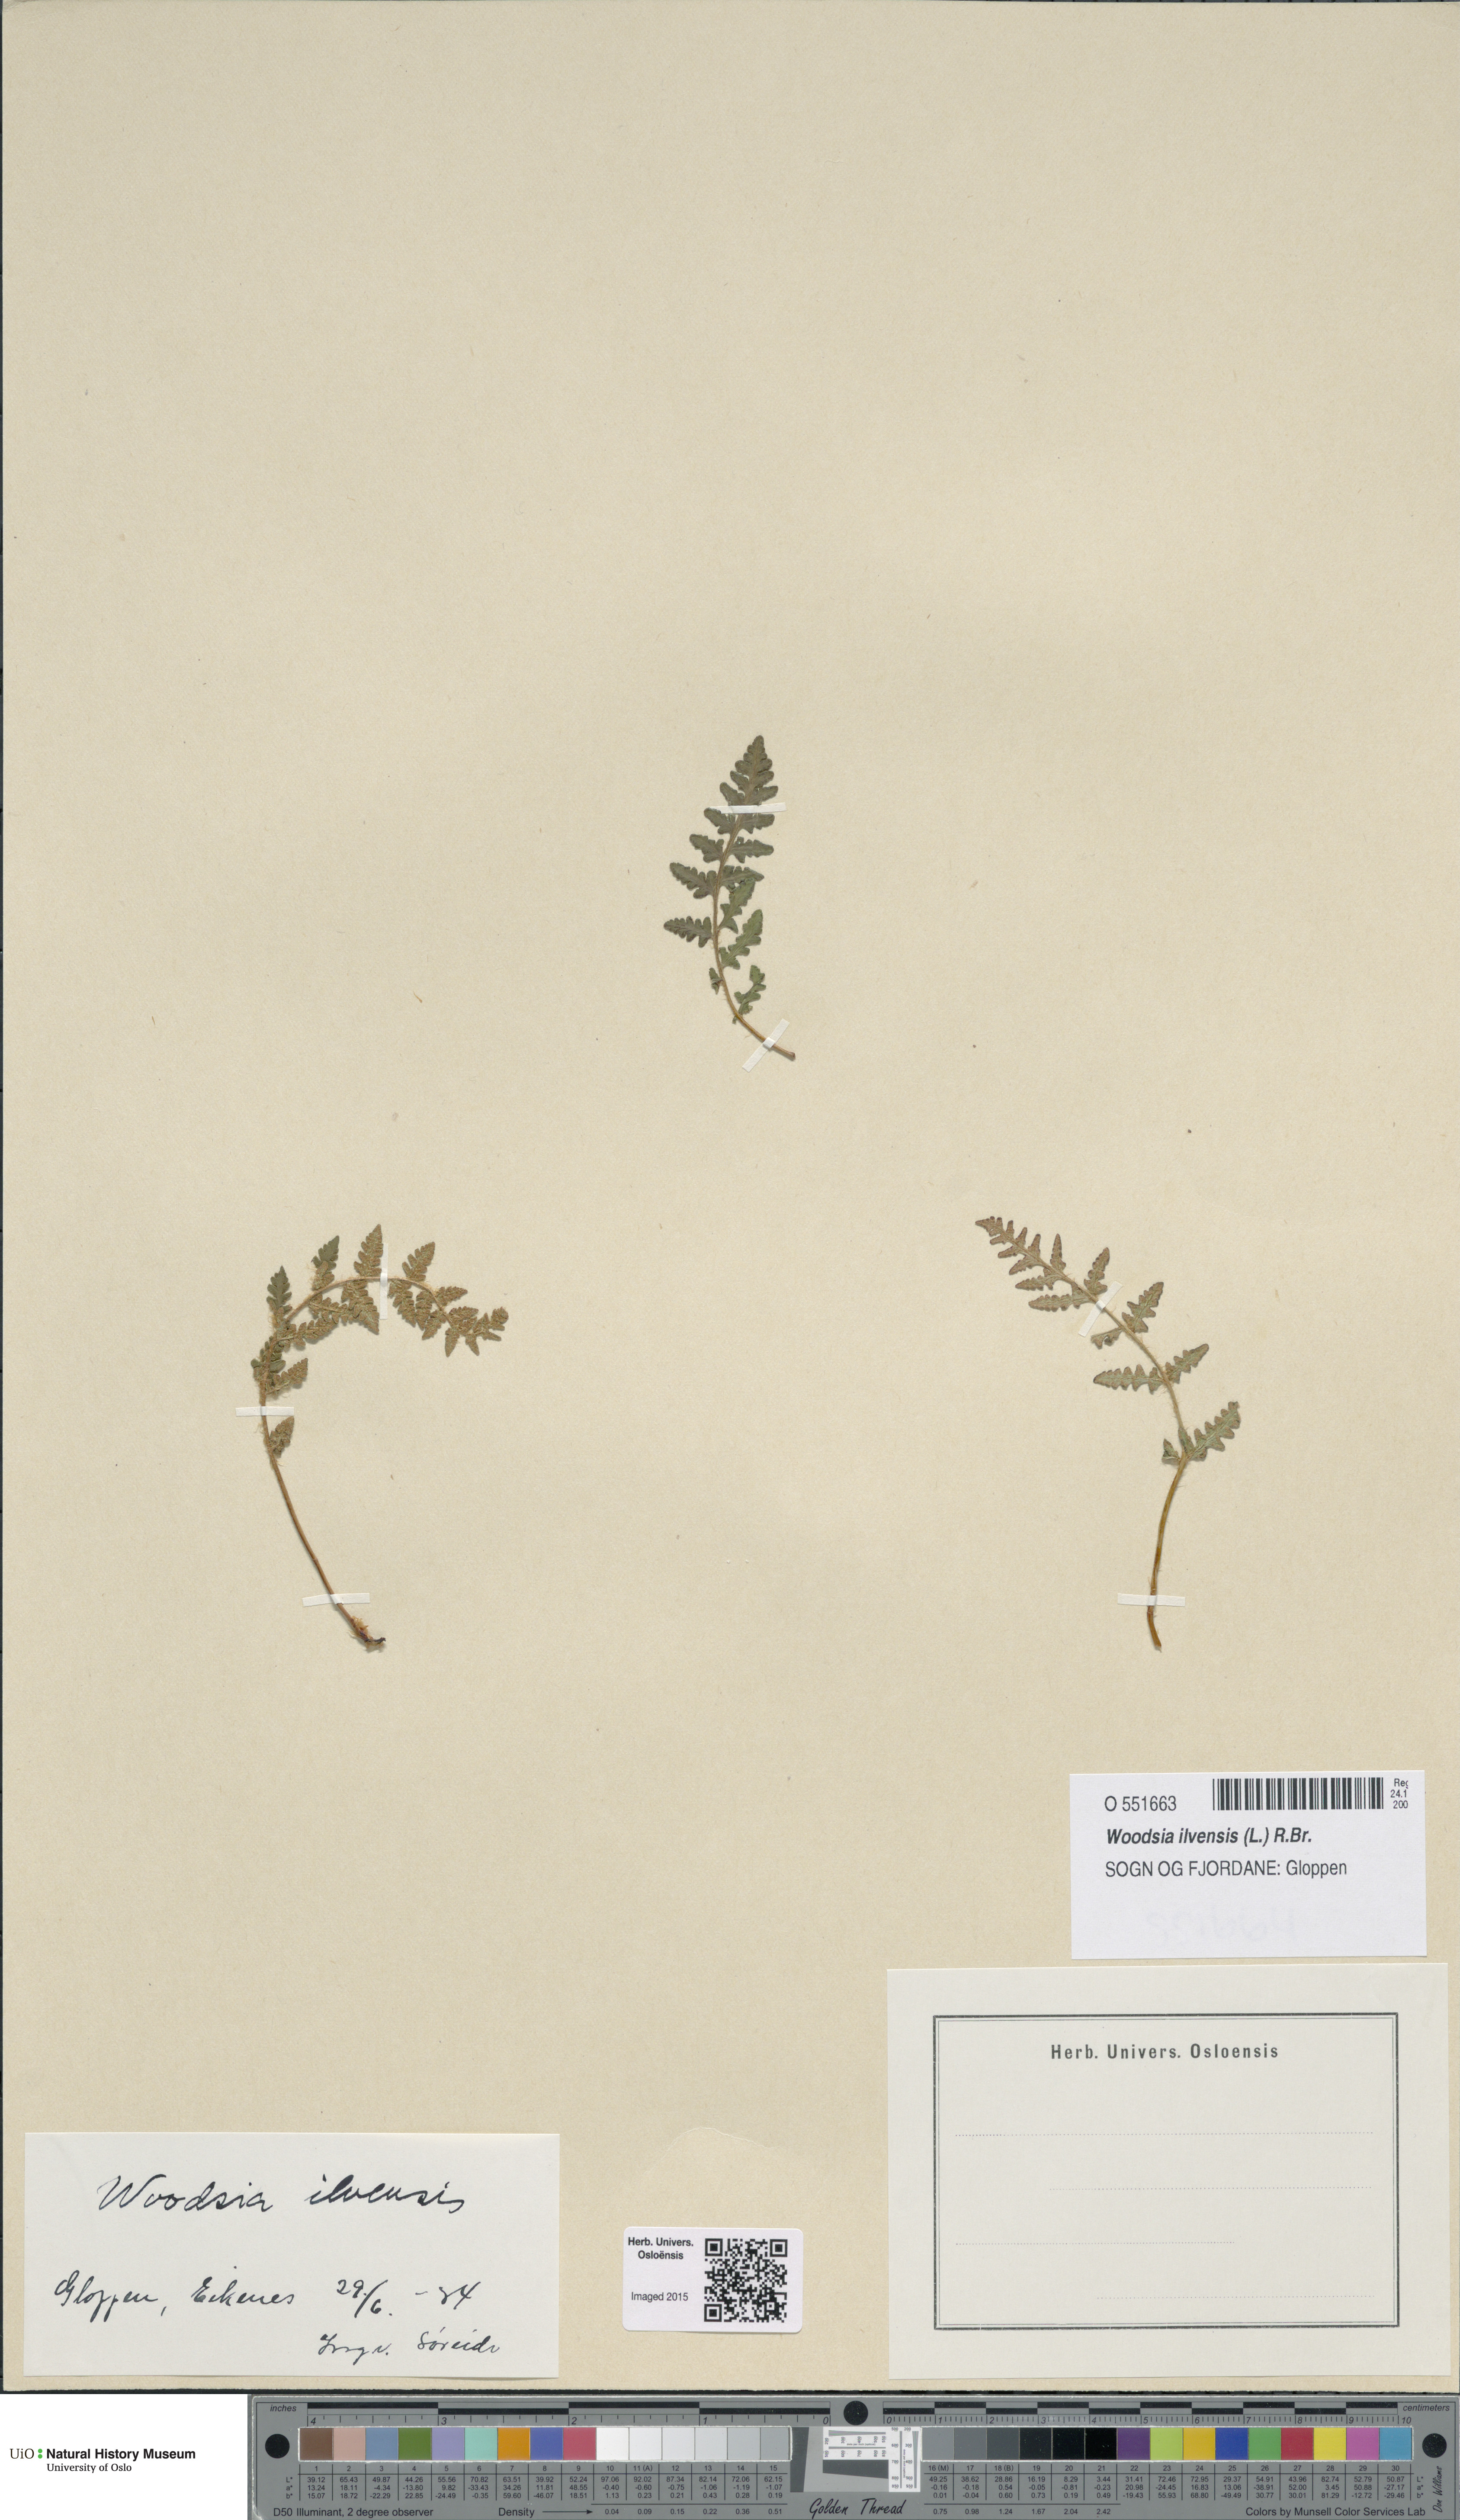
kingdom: Plantae
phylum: Tracheophyta
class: Polypodiopsida
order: Polypodiales
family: Woodsiaceae
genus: Woodsia
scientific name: Woodsia ilvensis
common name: Fragrant woodsia
